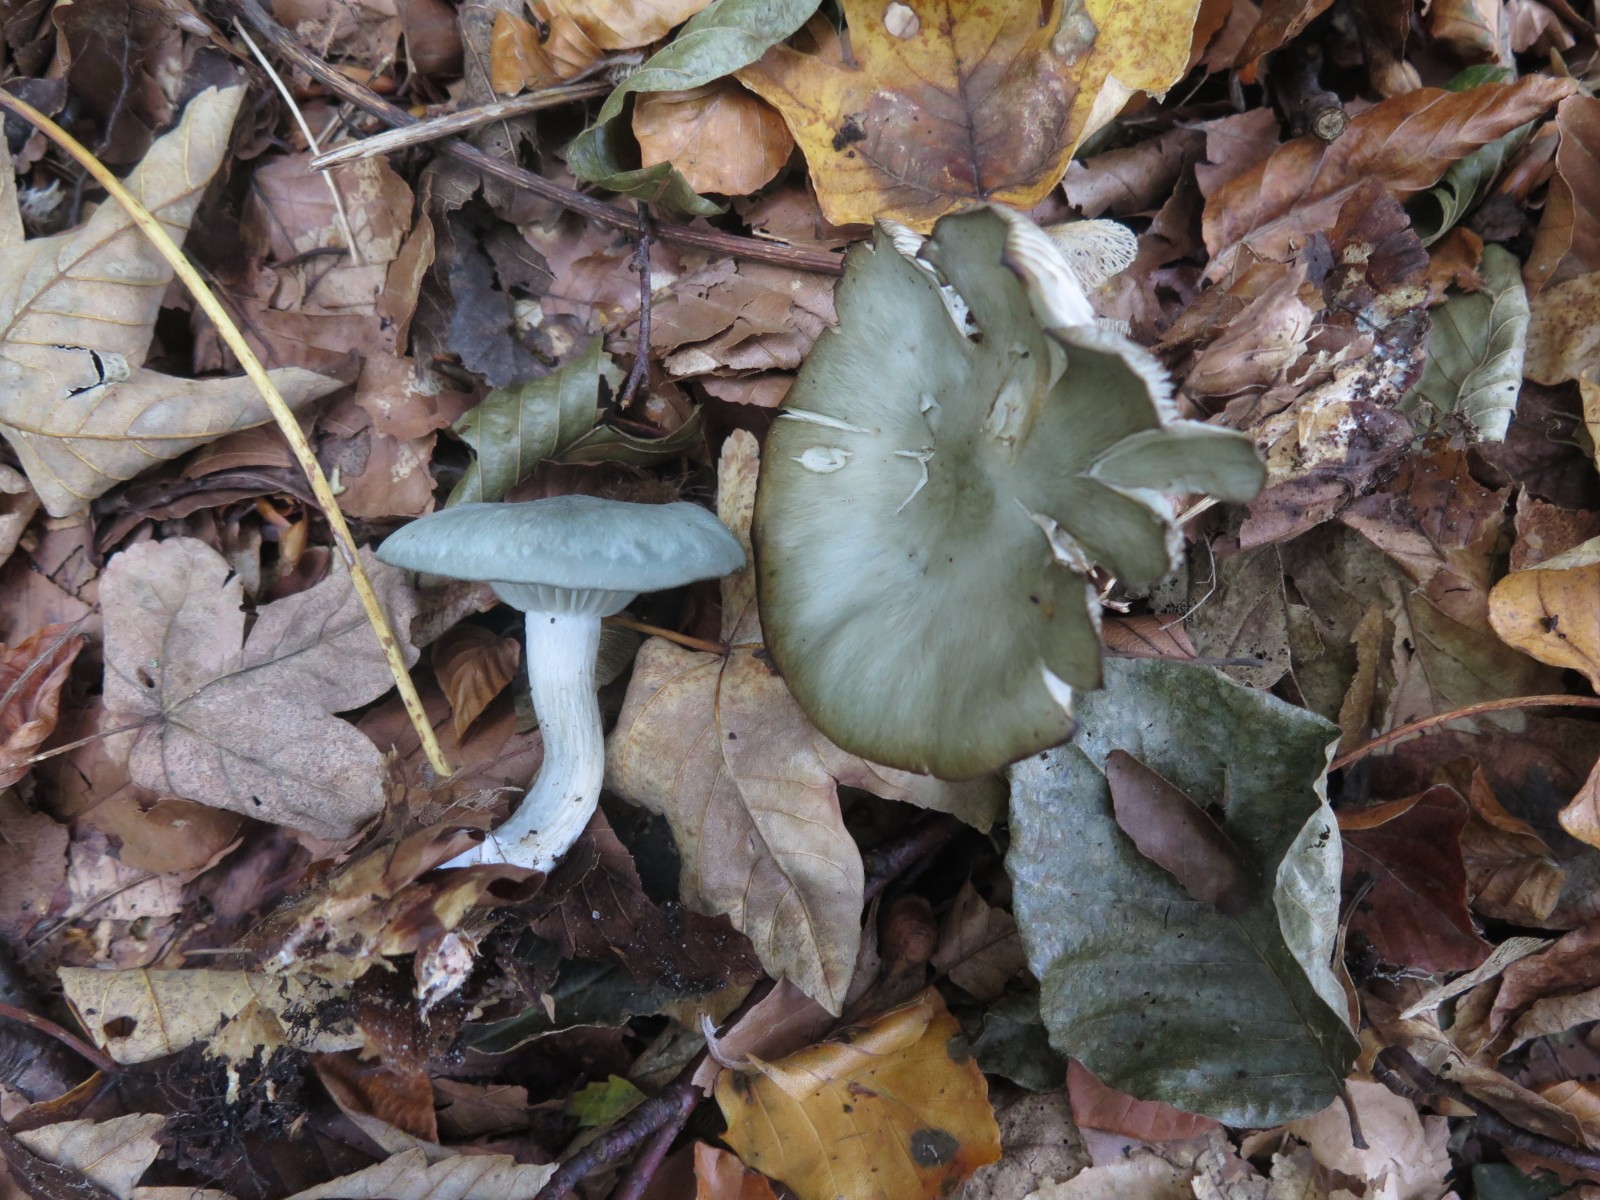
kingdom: Fungi
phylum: Basidiomycota
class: Agaricomycetes
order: Agaricales
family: Tricholomataceae
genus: Clitocybe
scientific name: Clitocybe odora
